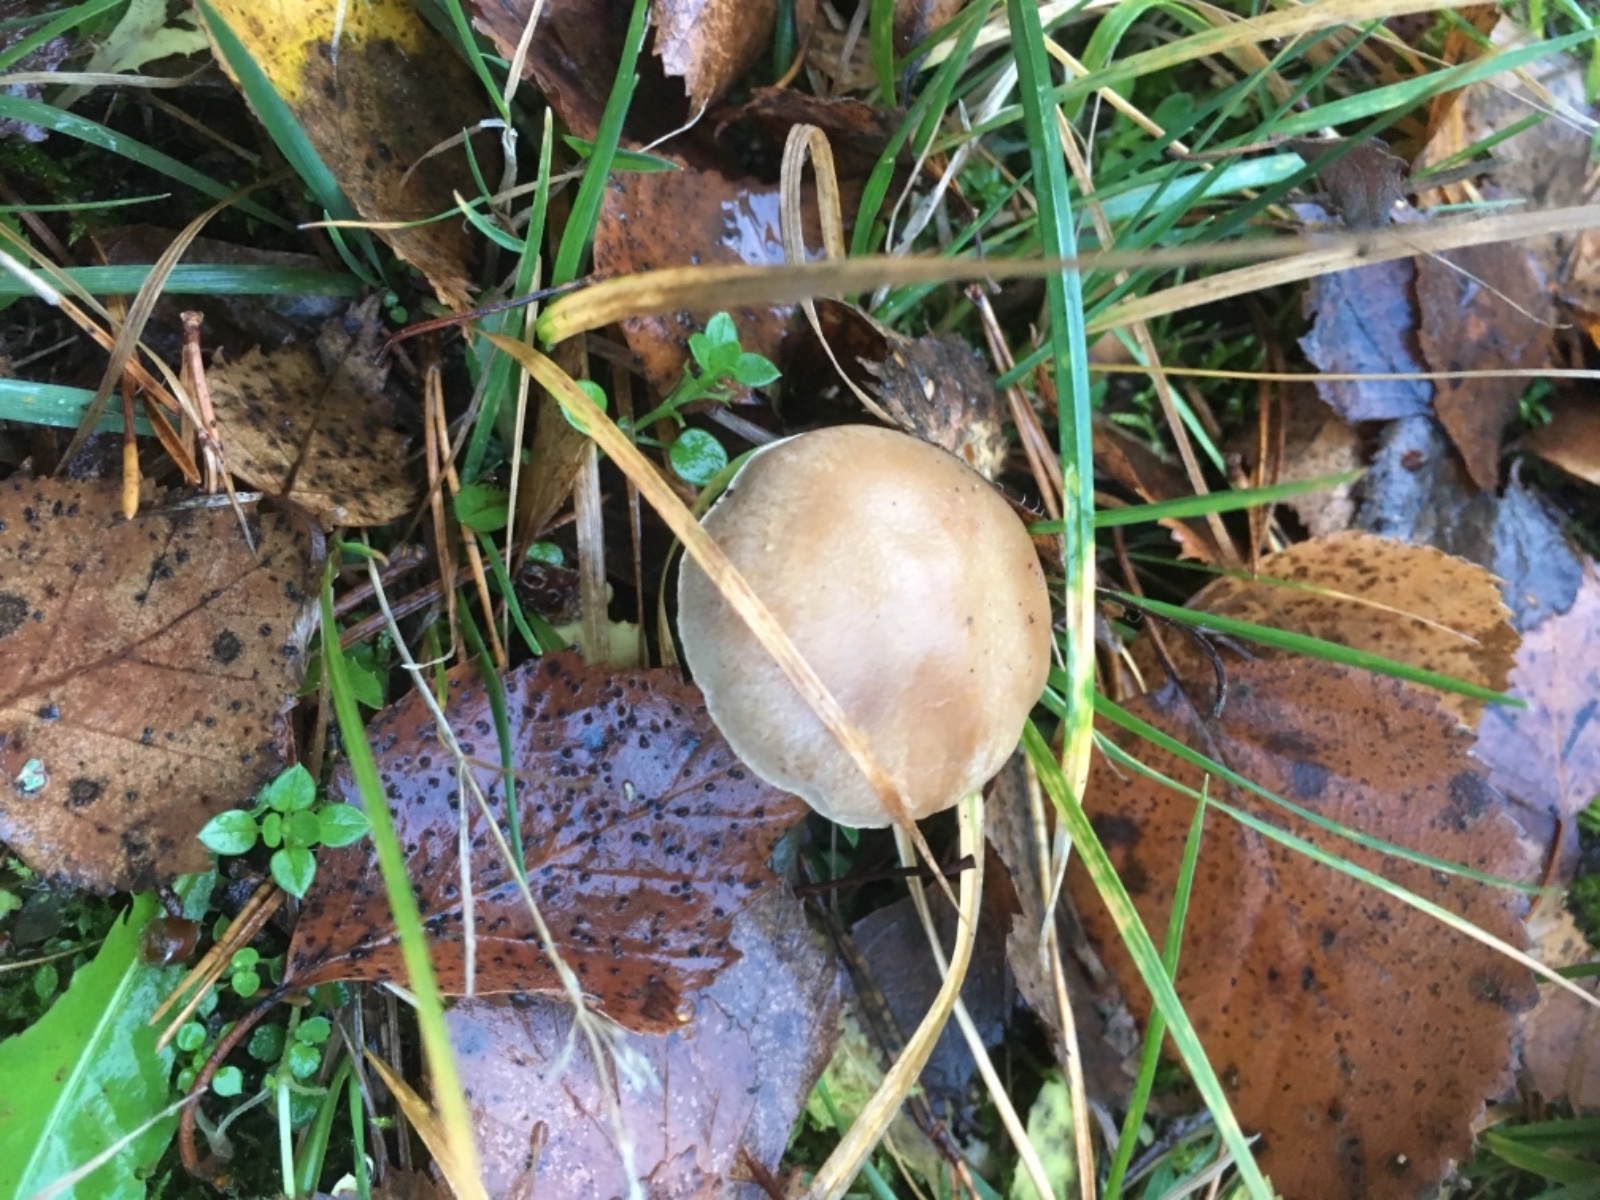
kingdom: Fungi
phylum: Basidiomycota
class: Agaricomycetes
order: Agaricales
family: Hymenogastraceae
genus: Hebeloma
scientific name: Hebeloma
